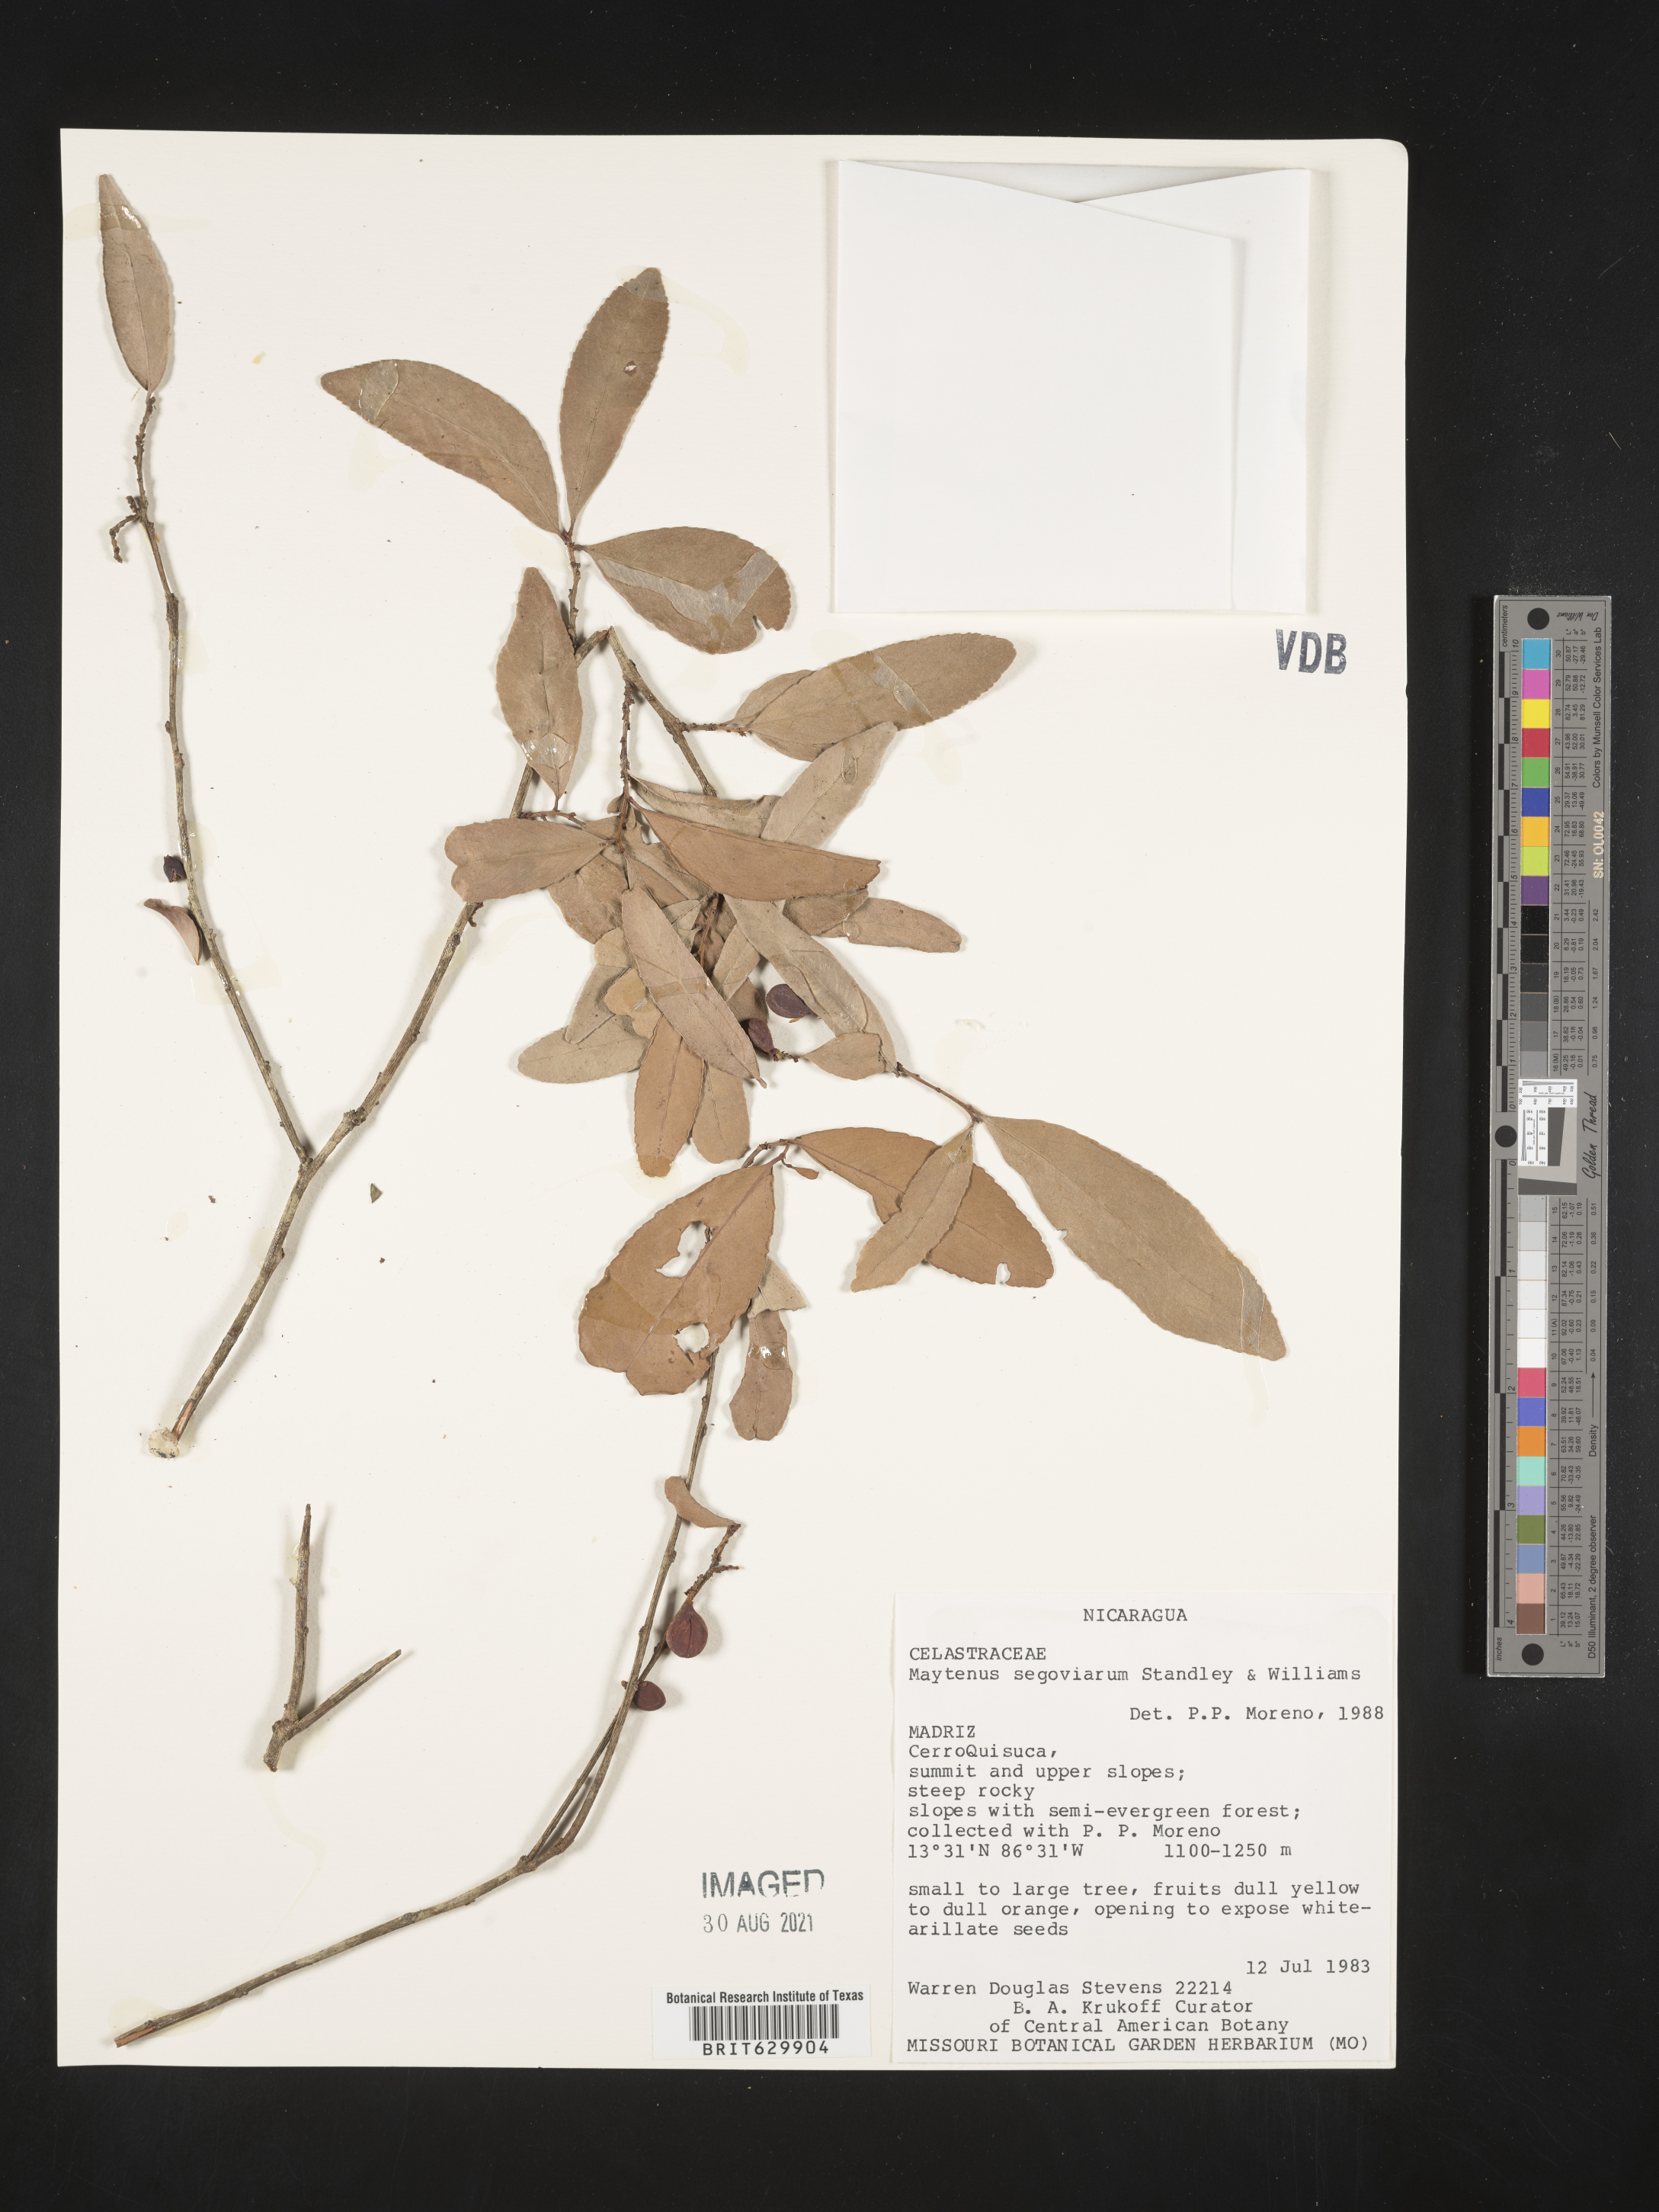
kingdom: Plantae
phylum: Tracheophyta
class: Magnoliopsida
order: Celastrales
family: Celastraceae
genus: Monteverdia
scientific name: Monteverdia segoviarum
